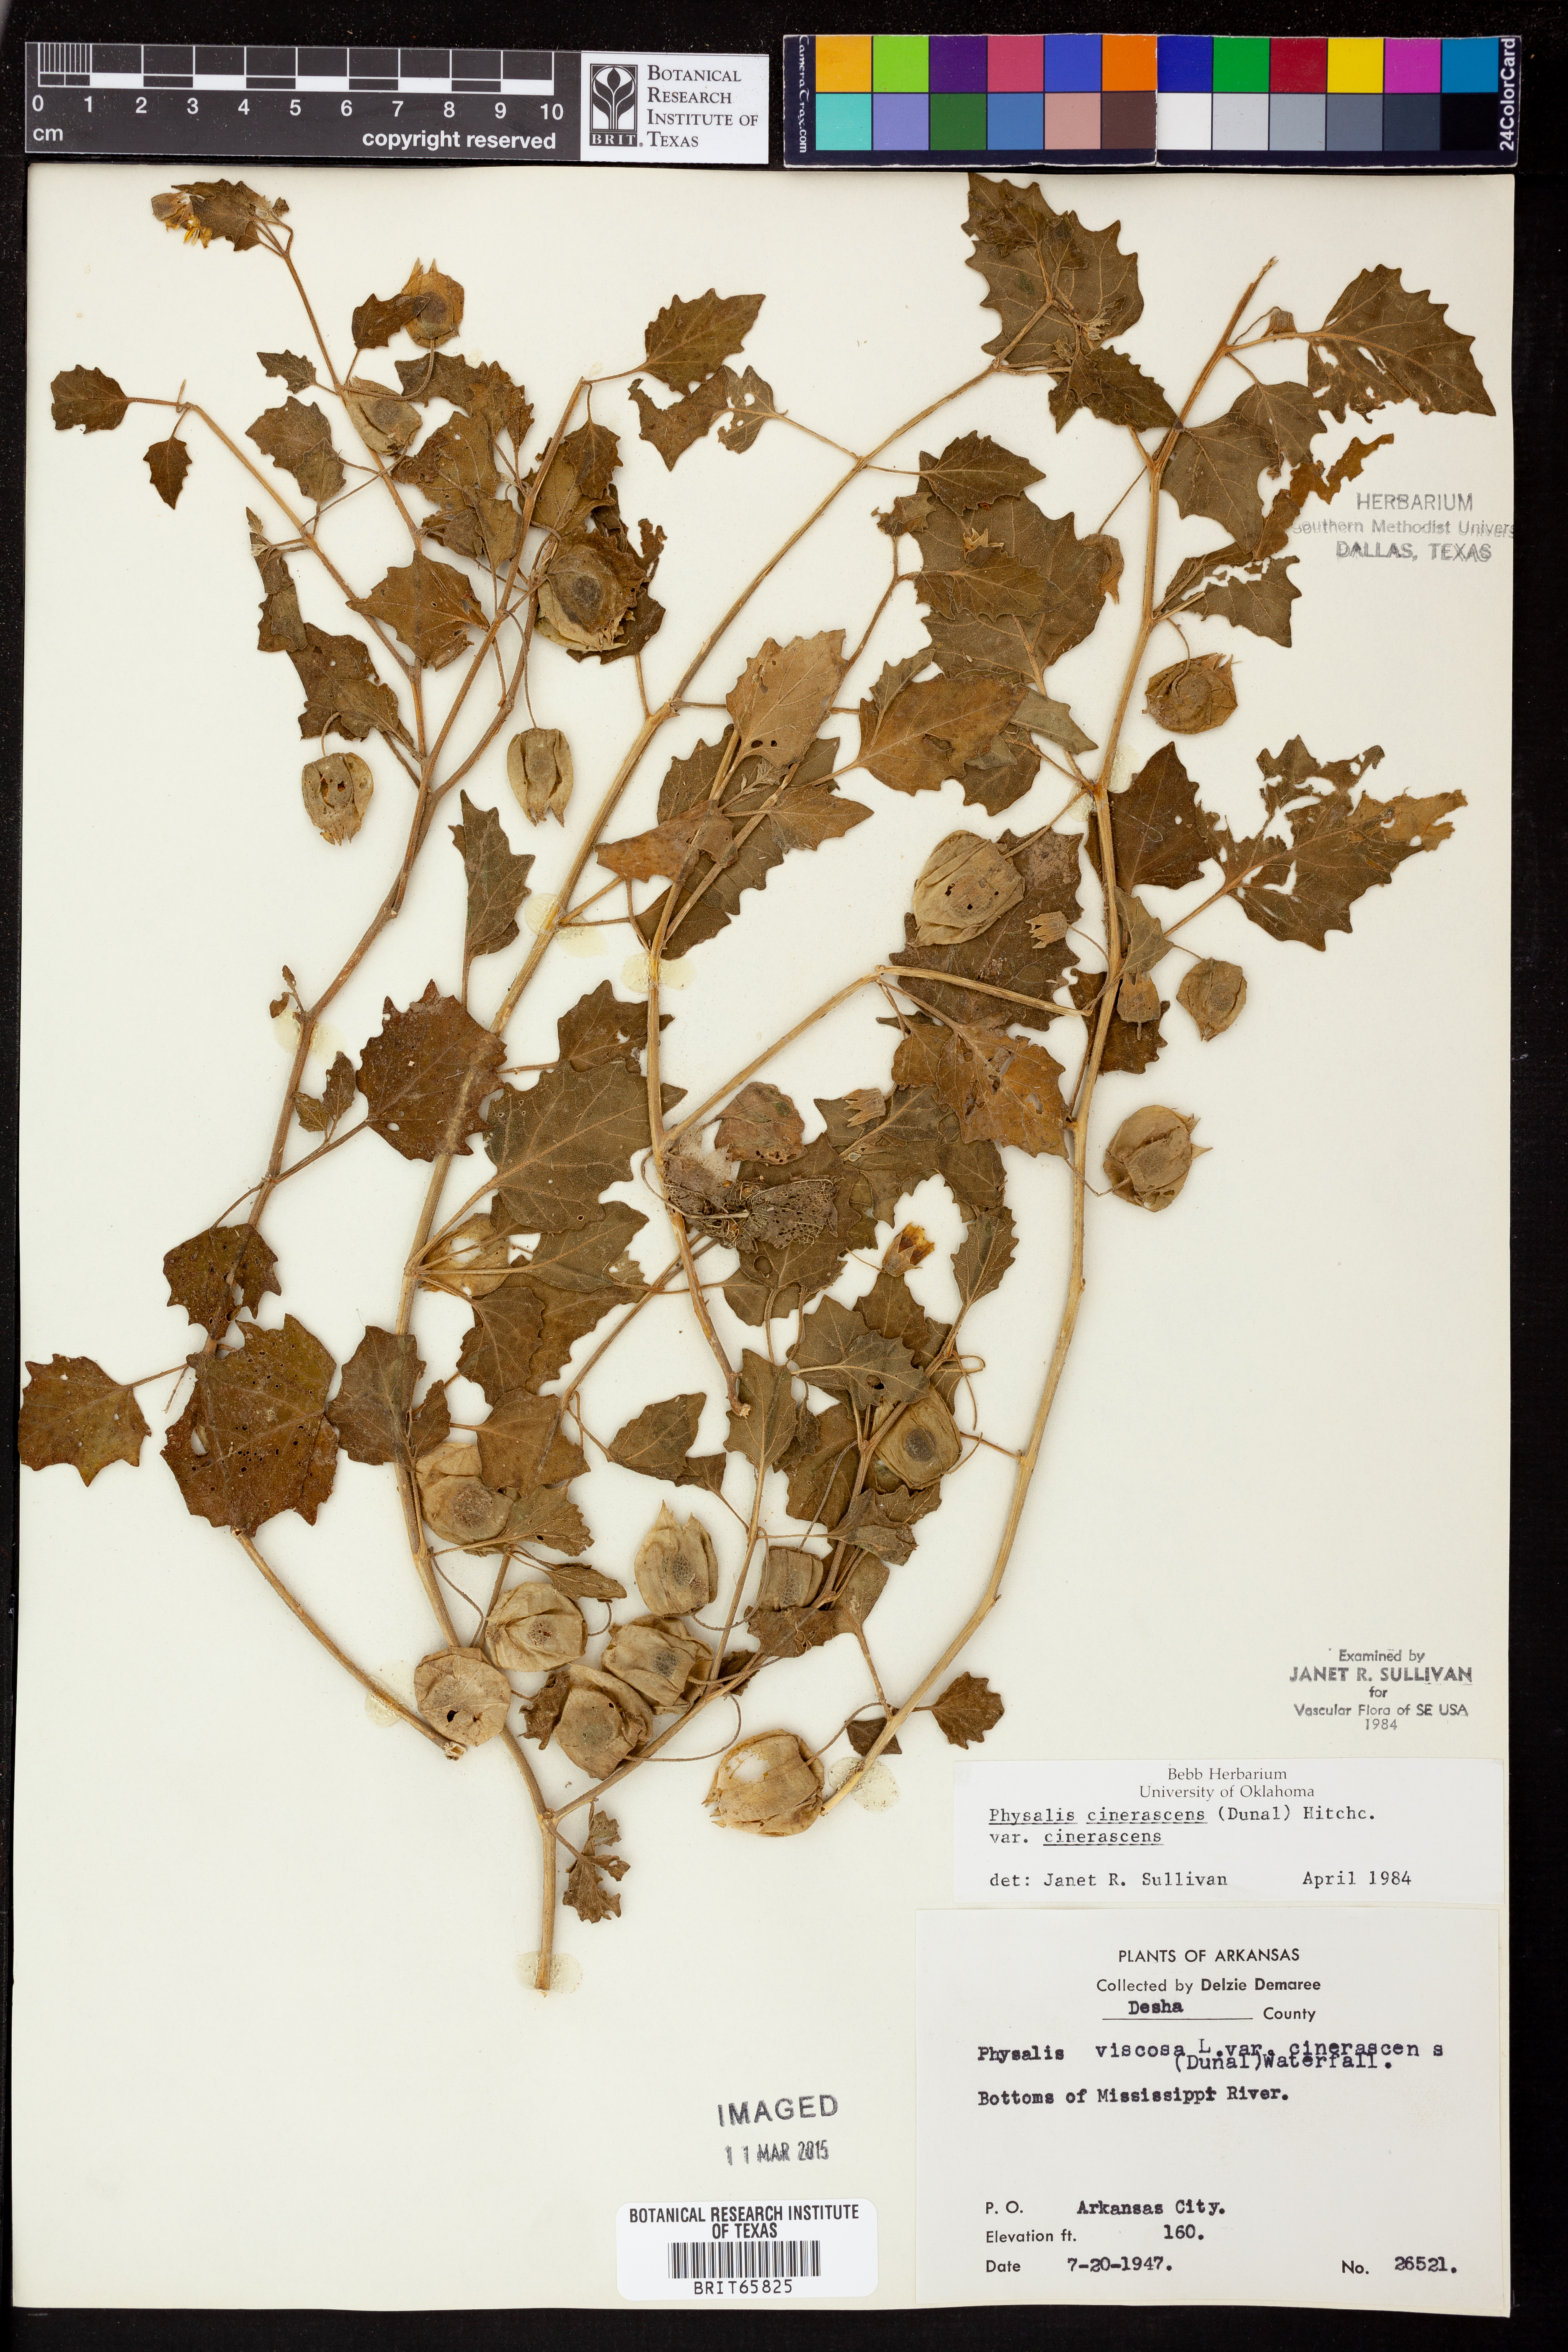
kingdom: Plantae
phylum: Tracheophyta
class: Magnoliopsida
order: Solanales
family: Solanaceae
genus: Physalis
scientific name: Physalis cinerascens
